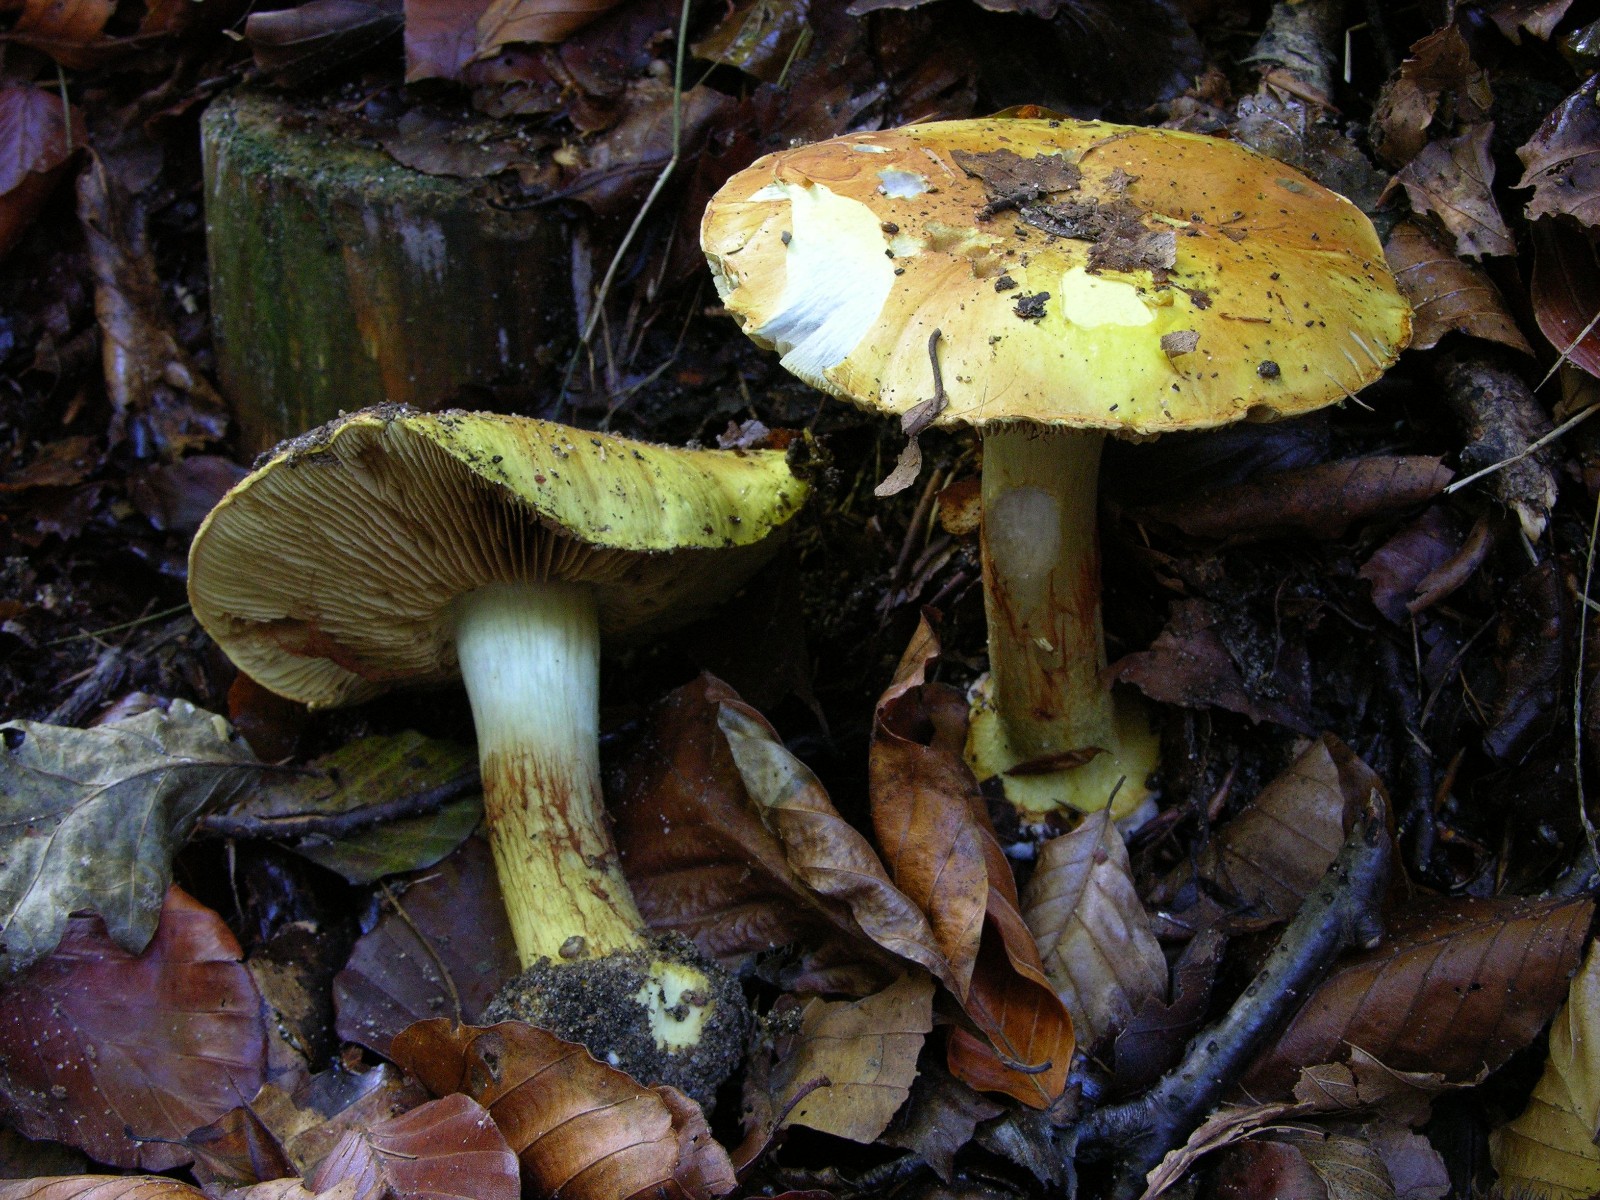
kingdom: Fungi
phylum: Basidiomycota
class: Agaricomycetes
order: Agaricales
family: Cortinariaceae
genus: Cortinarius
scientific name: Cortinarius bergeronii
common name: prægtig slørhat
